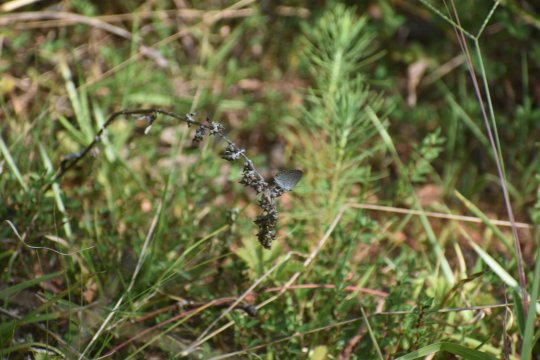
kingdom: Animalia
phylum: Arthropoda
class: Insecta
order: Lepidoptera
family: Lycaenidae
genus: Elkalyce
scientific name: Elkalyce comyntas
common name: Eastern Tailed-Blue
